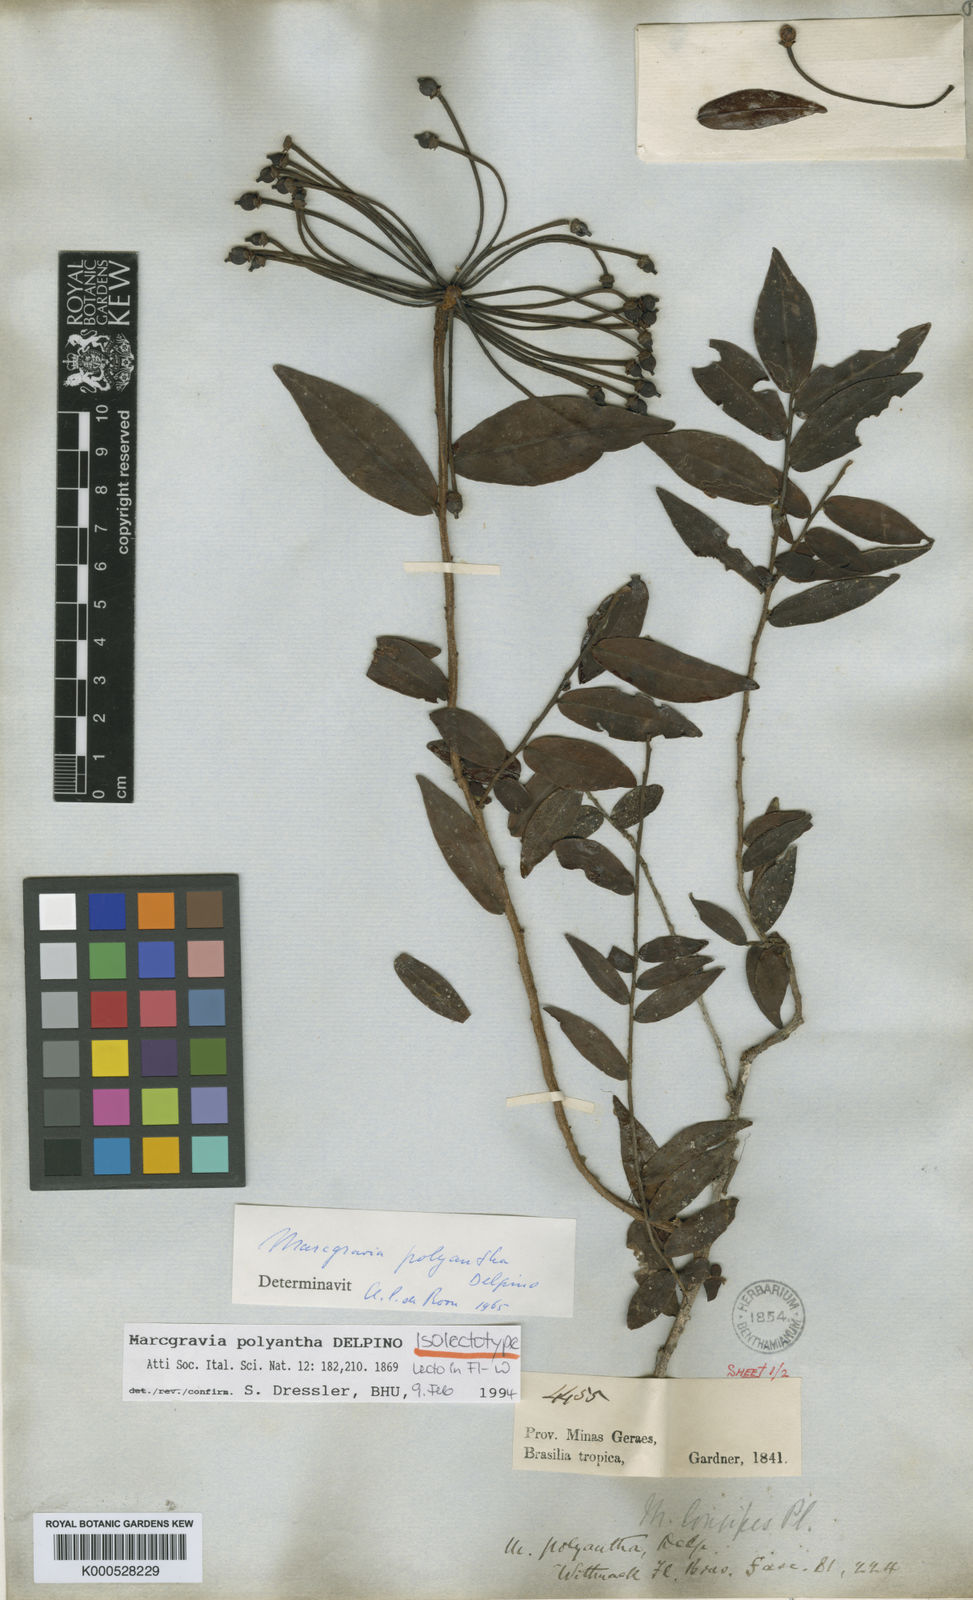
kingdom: Plantae
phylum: Tracheophyta
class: Magnoliopsida
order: Ericales
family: Marcgraviaceae
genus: Marcgravia
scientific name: Marcgravia polyantha
